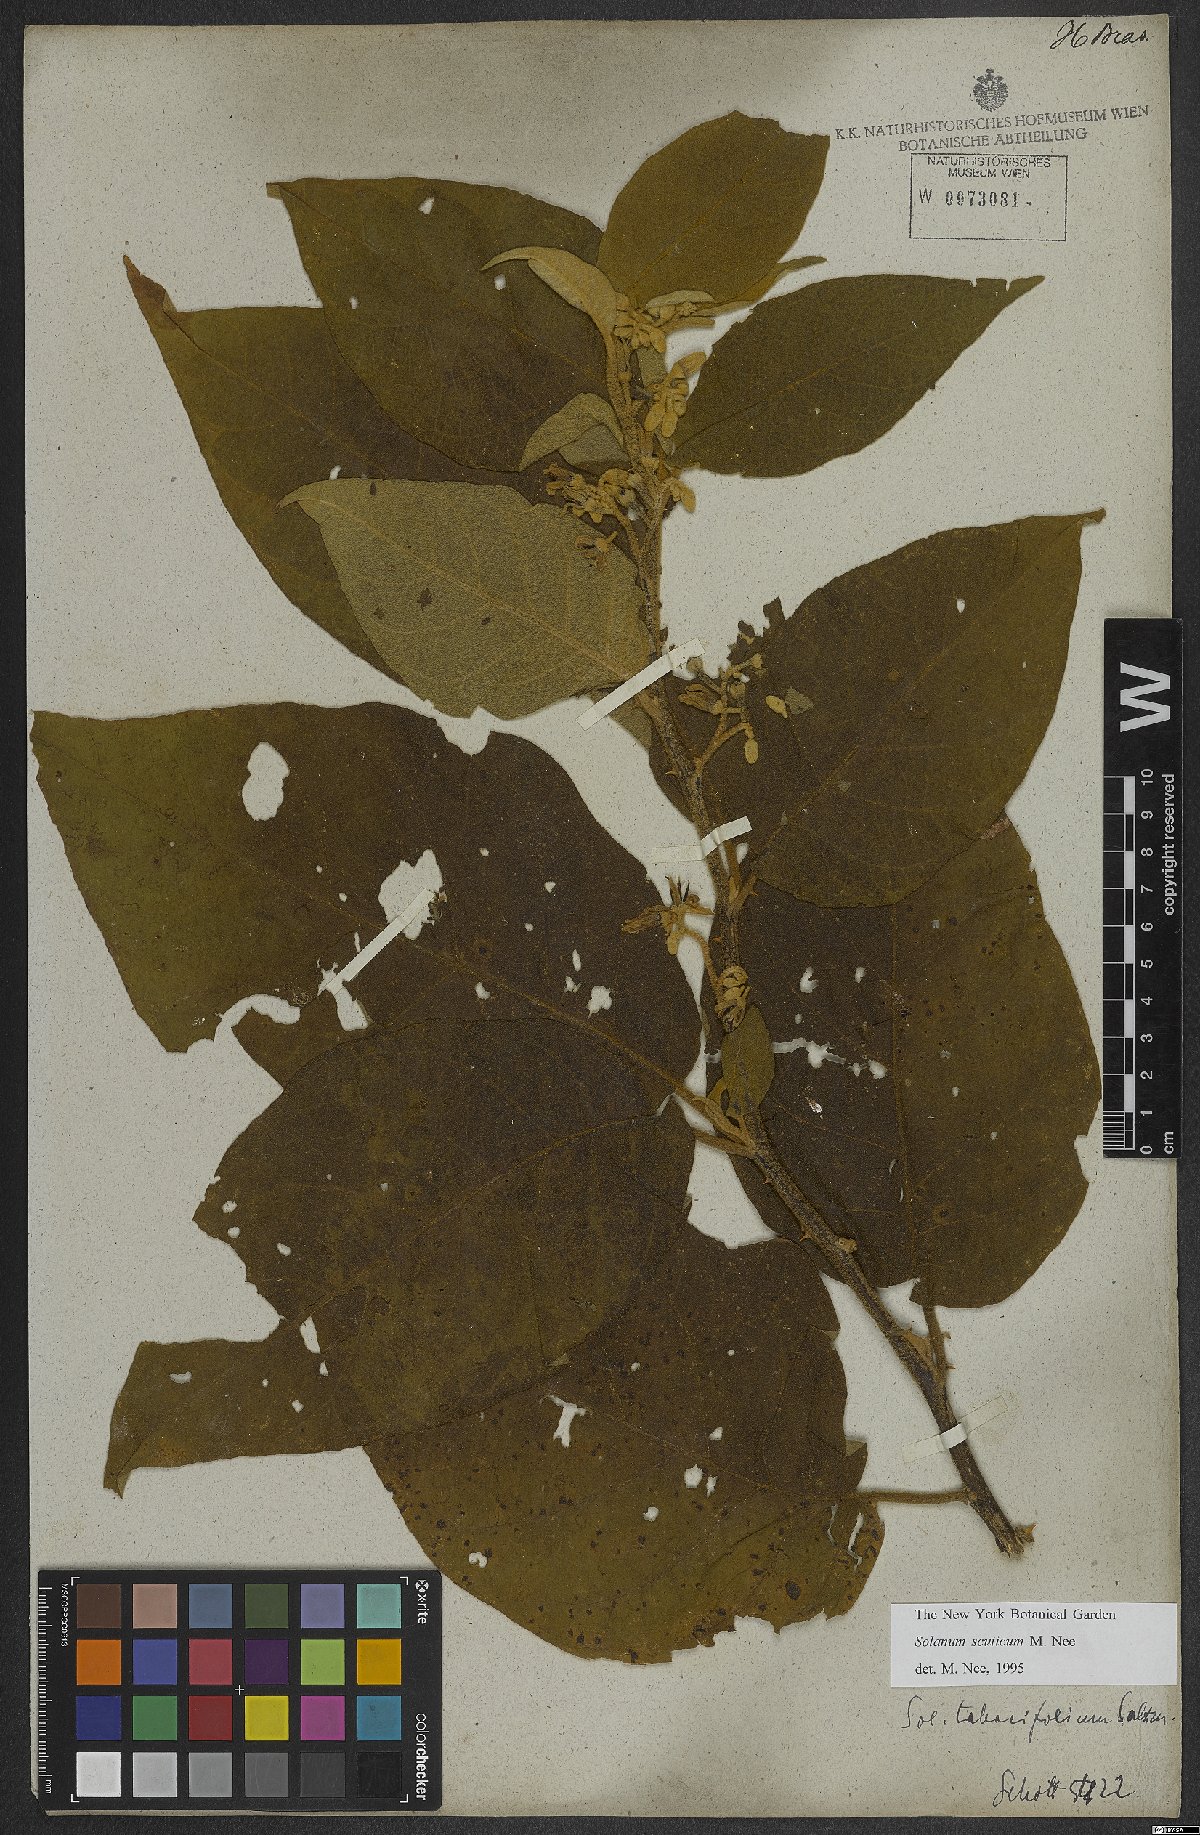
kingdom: Plantae
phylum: Tracheophyta
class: Magnoliopsida
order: Solanales
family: Solanaceae
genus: Solanum
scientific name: Solanum scuticum
